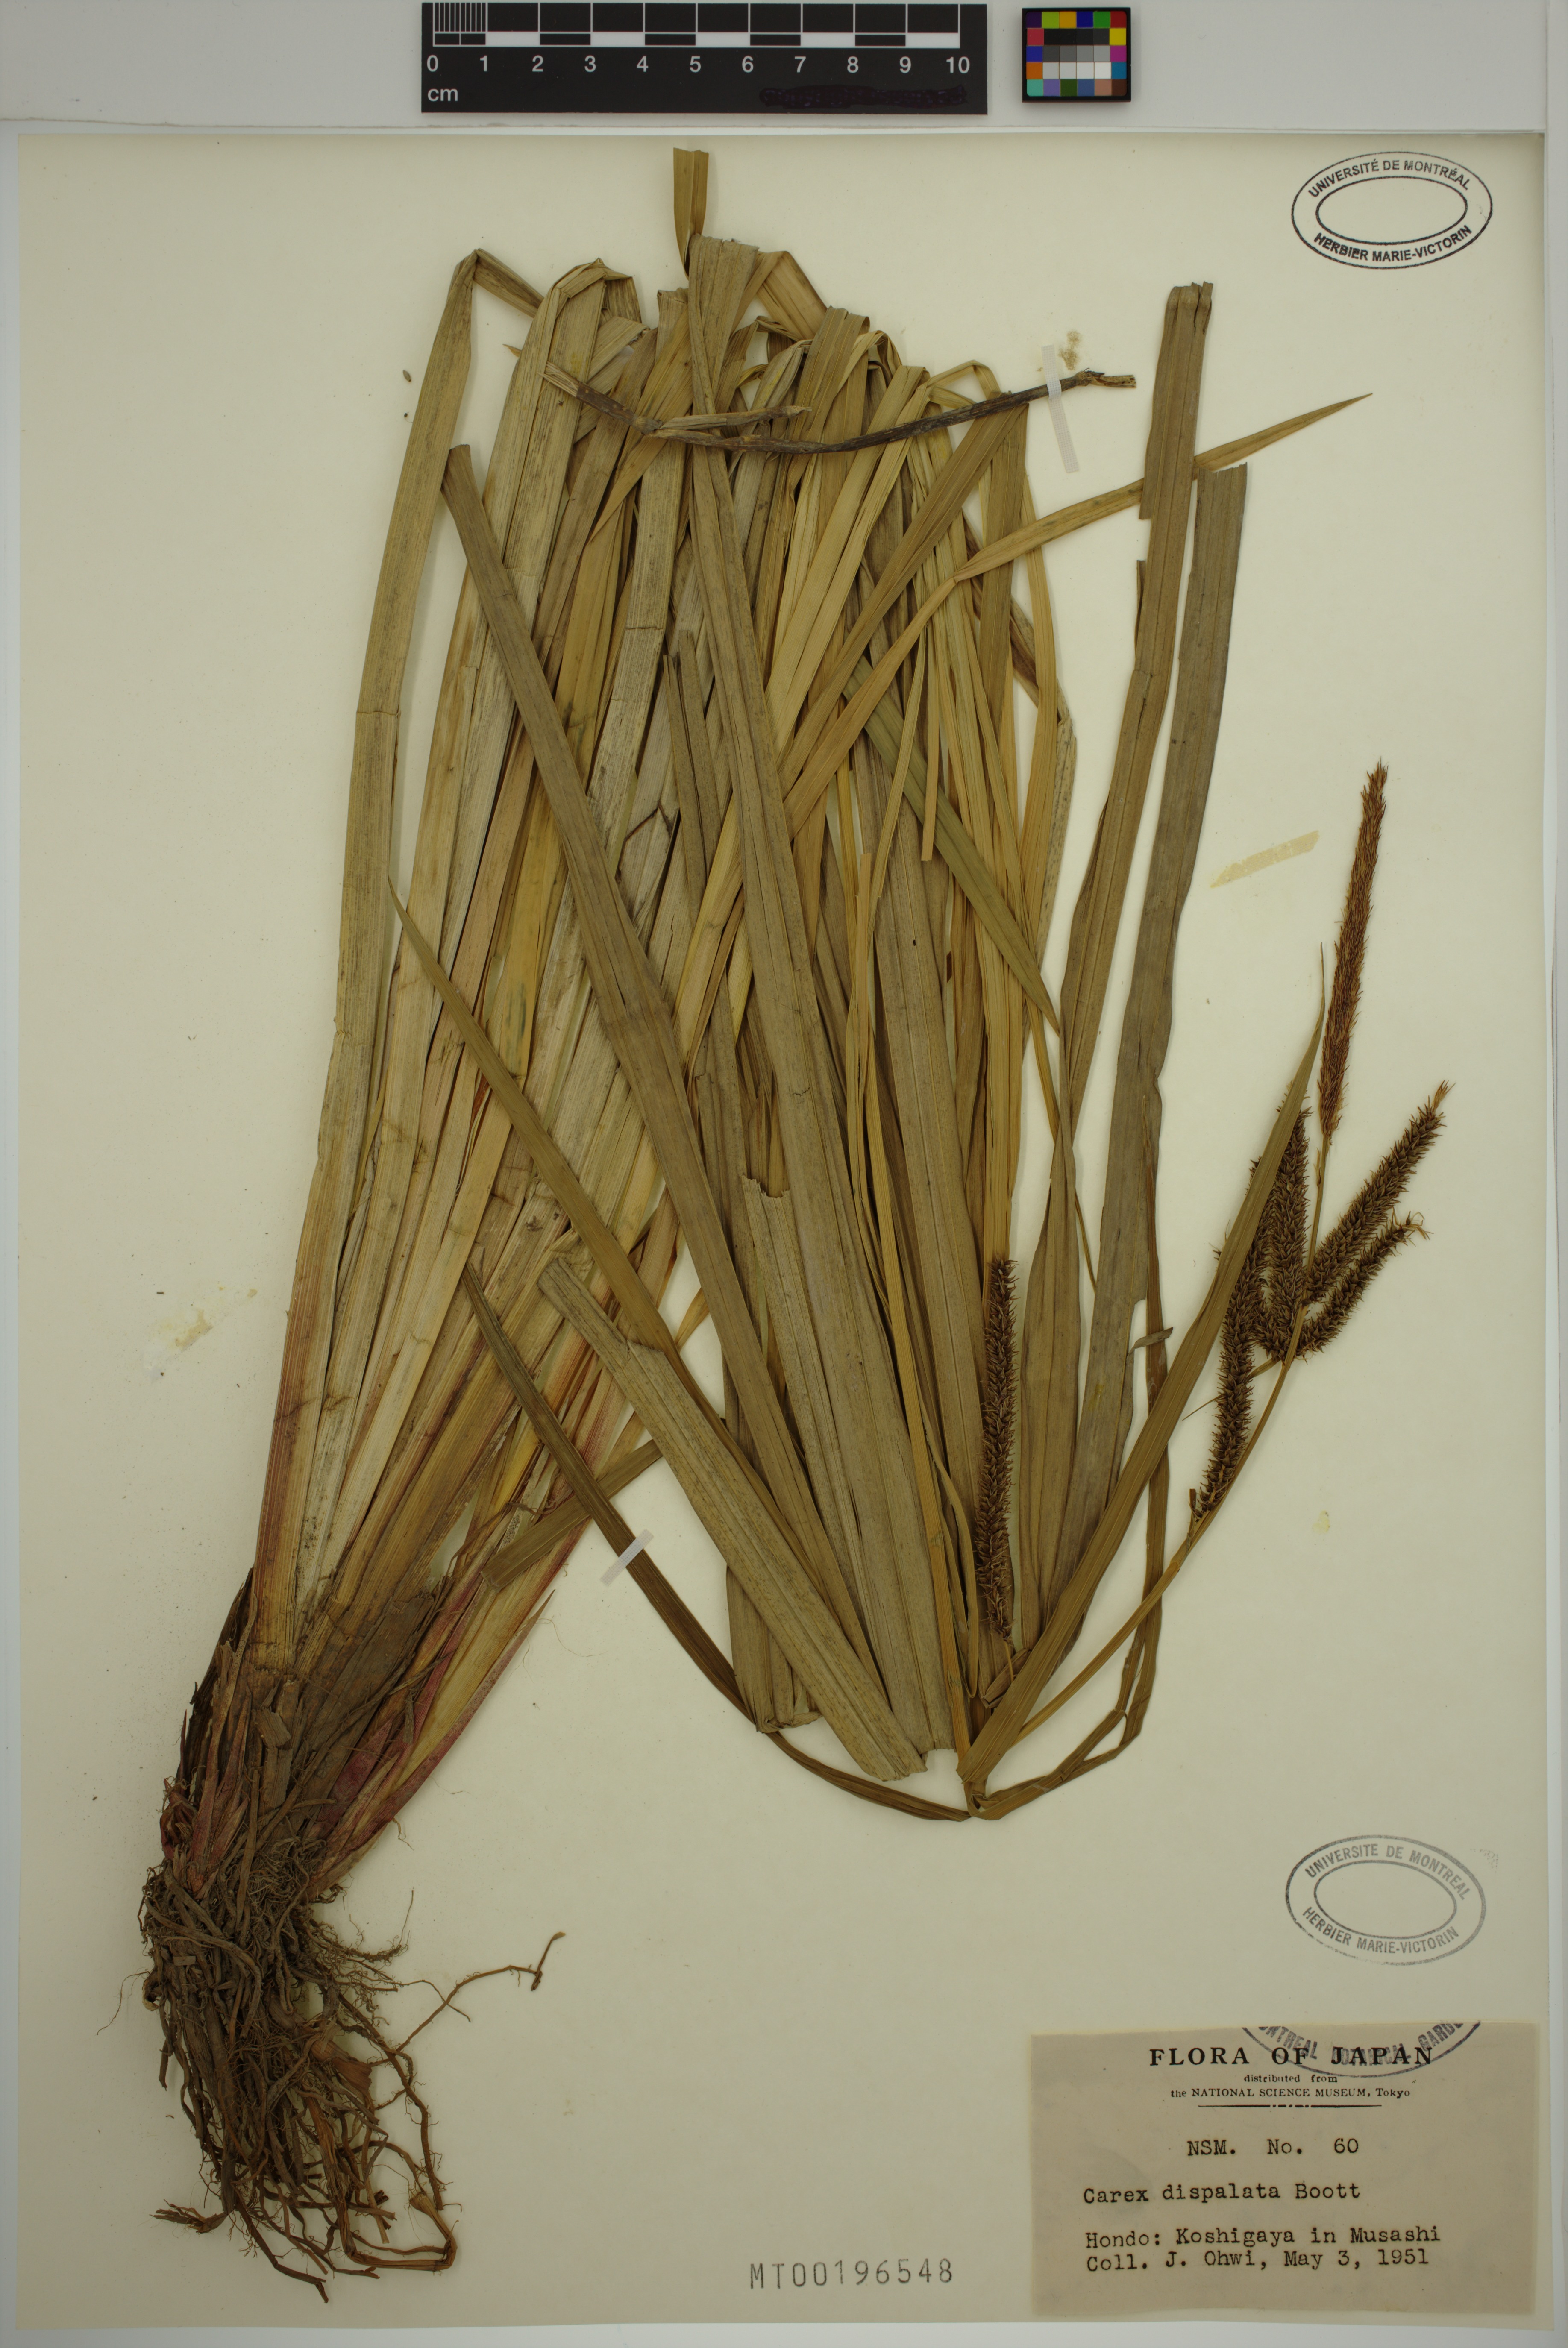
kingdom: Plantae
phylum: Tracheophyta
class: Liliopsida
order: Poales
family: Cyperaceae
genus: Carex
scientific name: Carex dispalata
